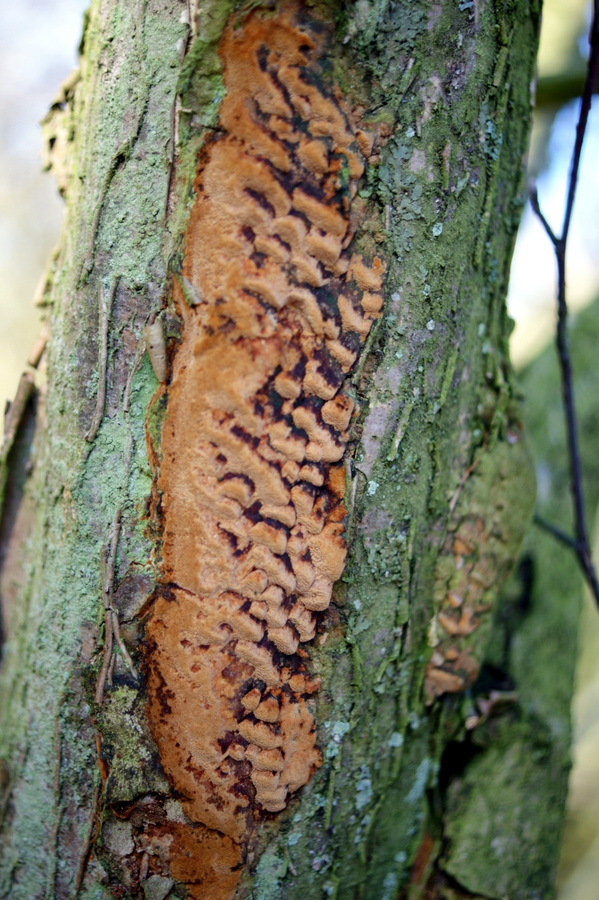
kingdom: Fungi
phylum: Basidiomycota
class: Agaricomycetes
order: Hymenochaetales
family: Hymenochaetaceae
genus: Fuscoporia
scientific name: Fuscoporia ferrea
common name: skorpe-ildporesvamp
